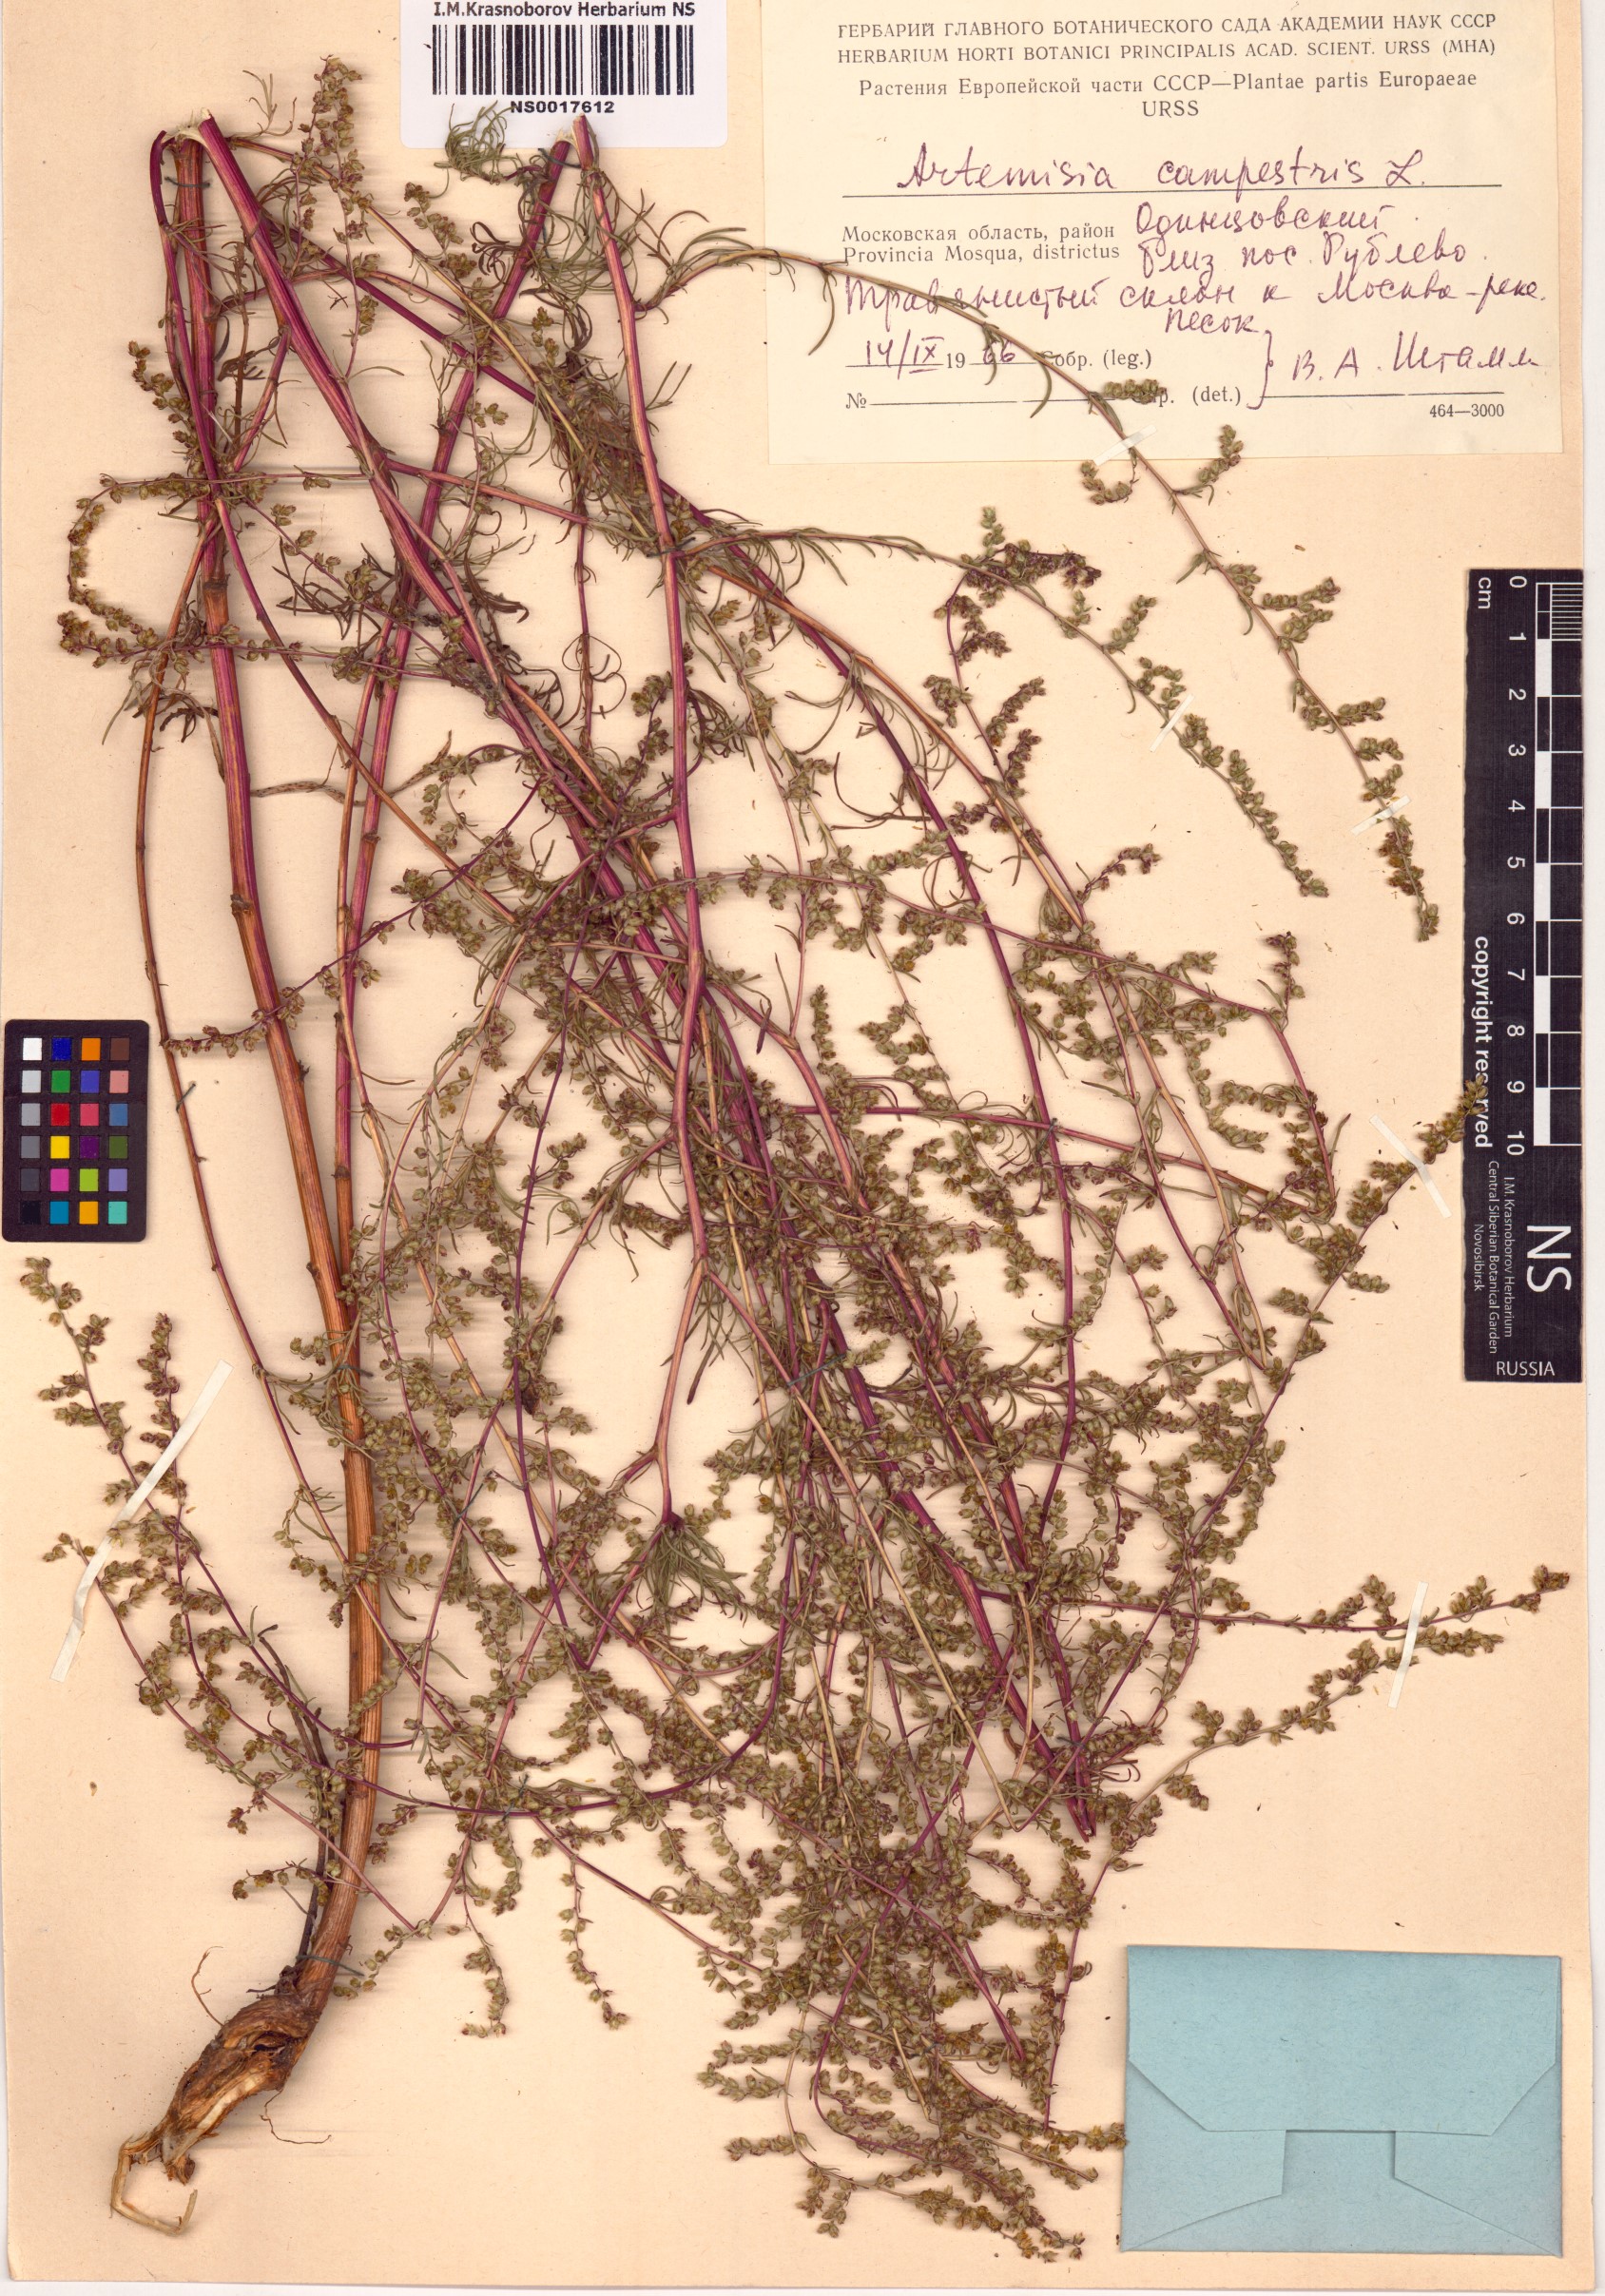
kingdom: Plantae
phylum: Tracheophyta
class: Magnoliopsida
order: Asterales
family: Asteraceae
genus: Artemisia
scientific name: Artemisia campestris
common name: Field wormwood
